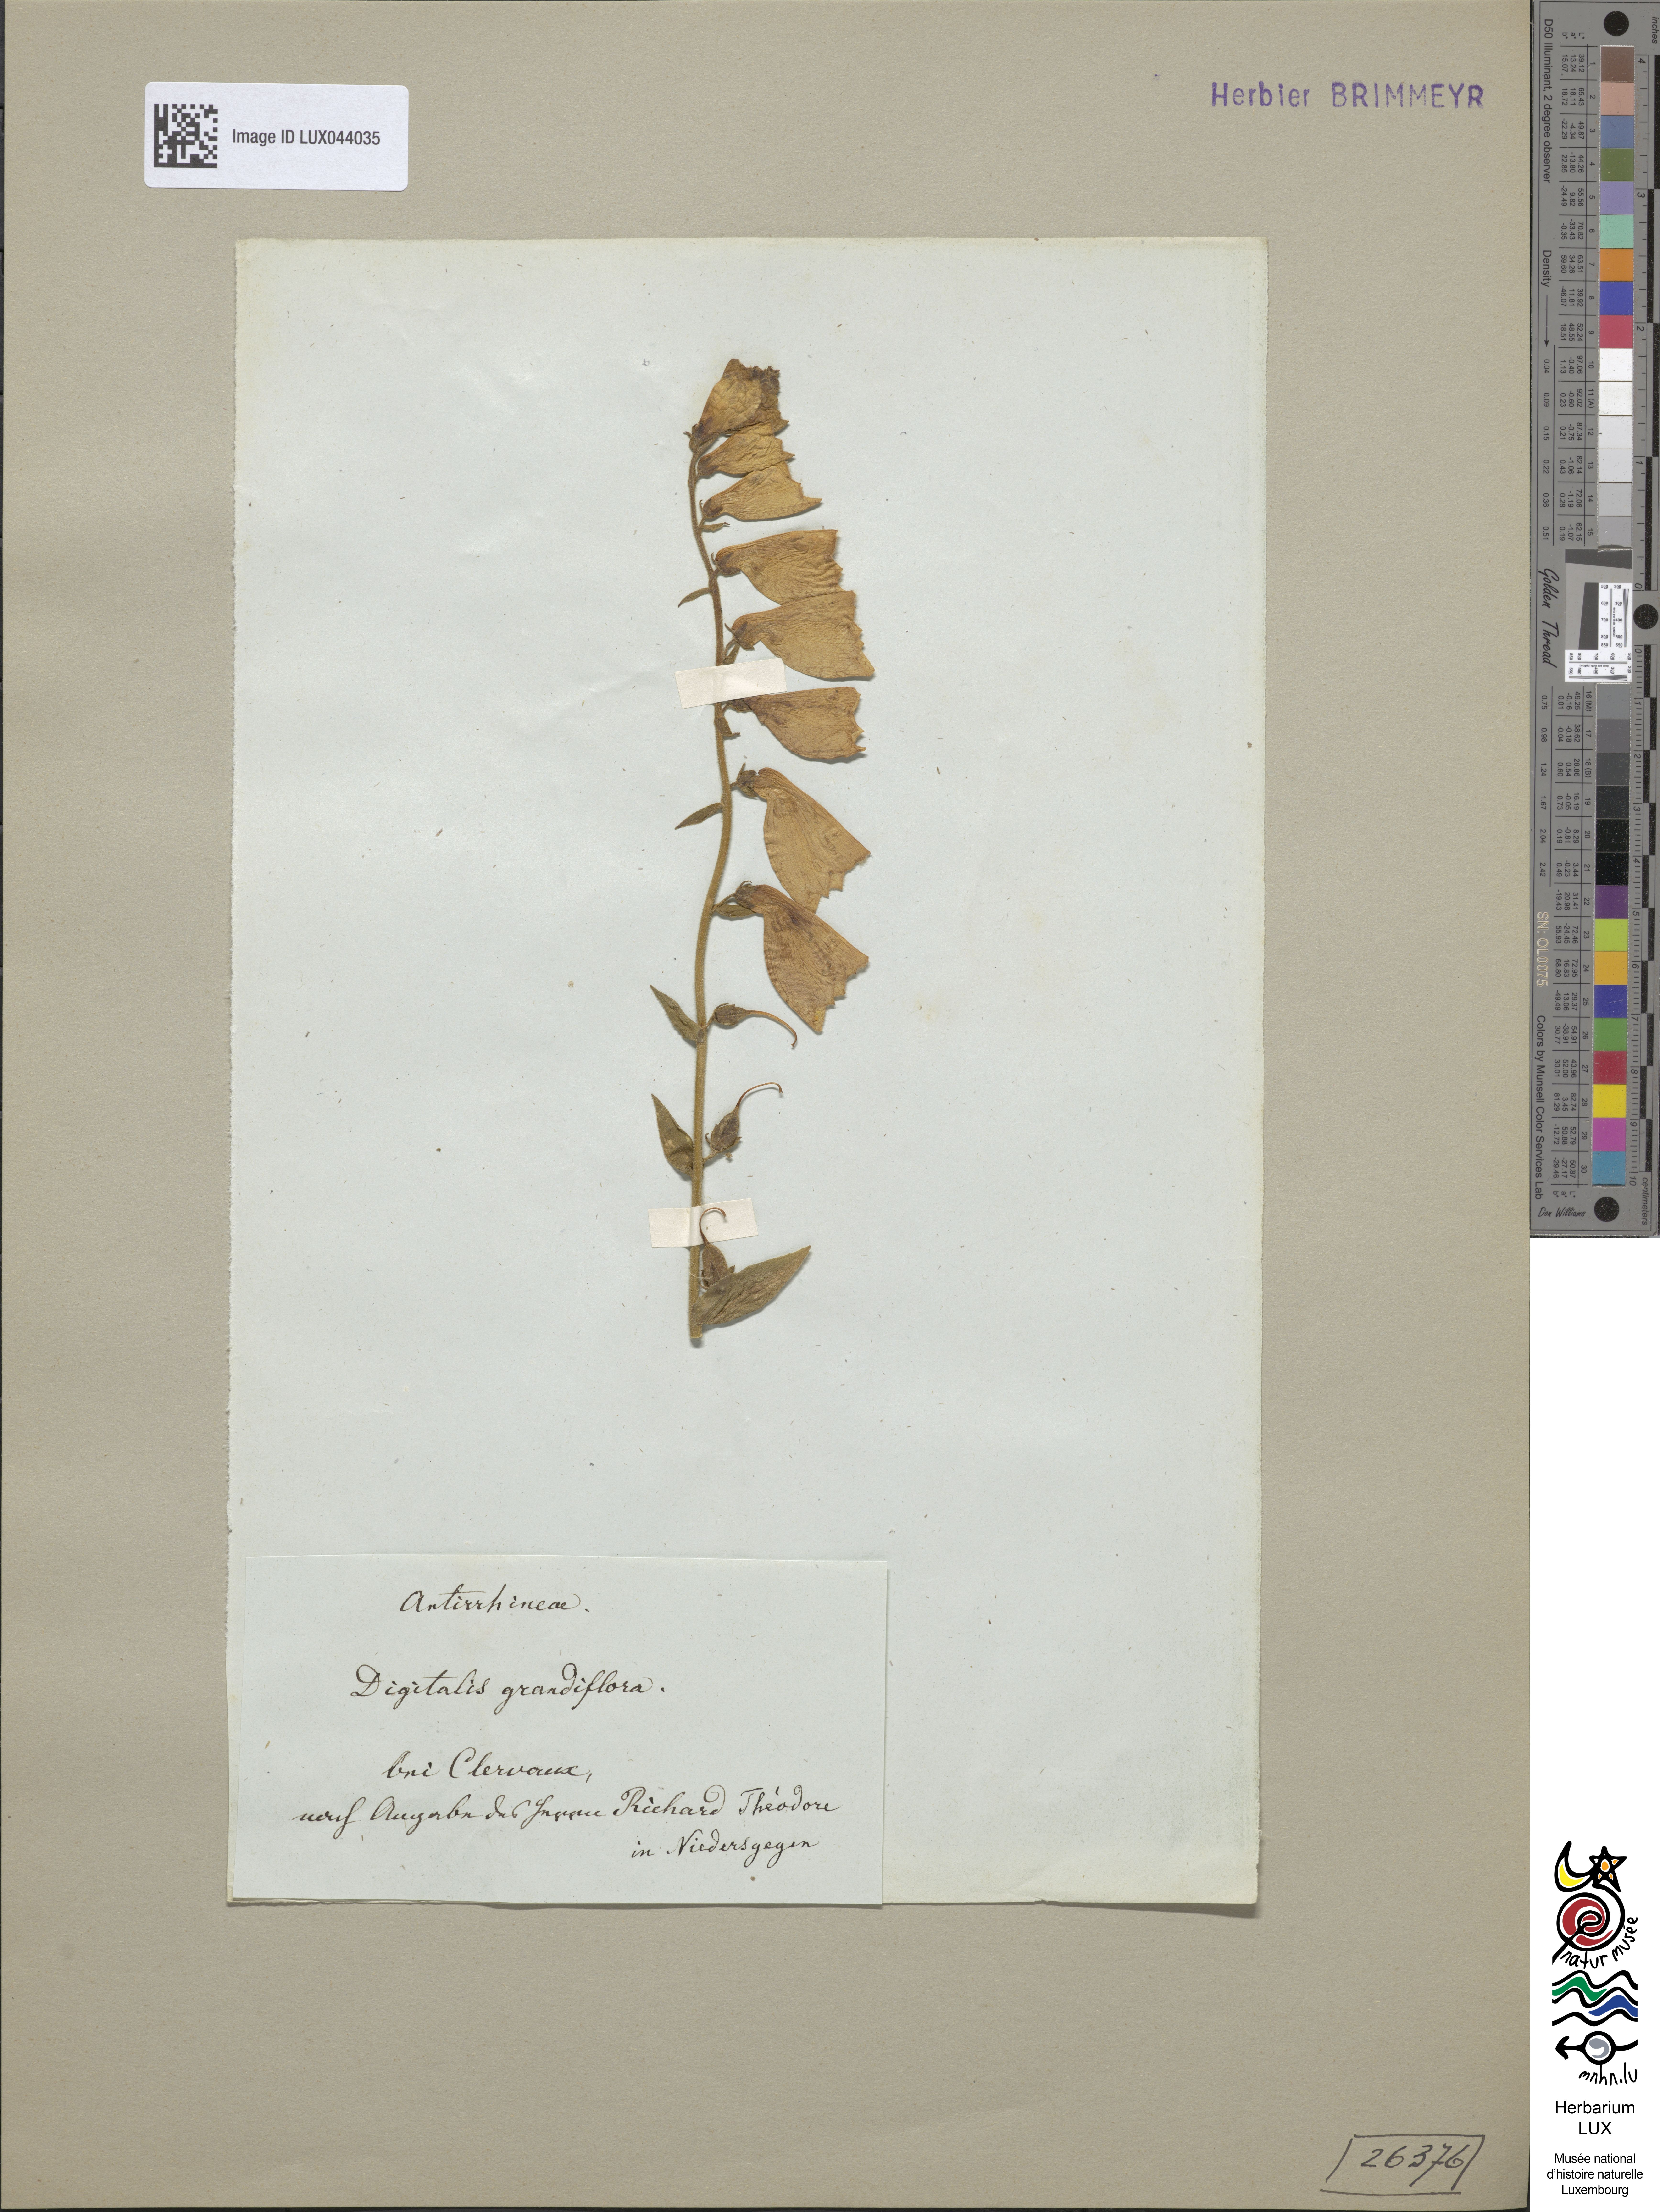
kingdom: Plantae
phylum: Tracheophyta
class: Magnoliopsida
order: Lamiales
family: Plantaginaceae
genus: Digitalis
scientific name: Digitalis grandiflora
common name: Yellow foxglove
